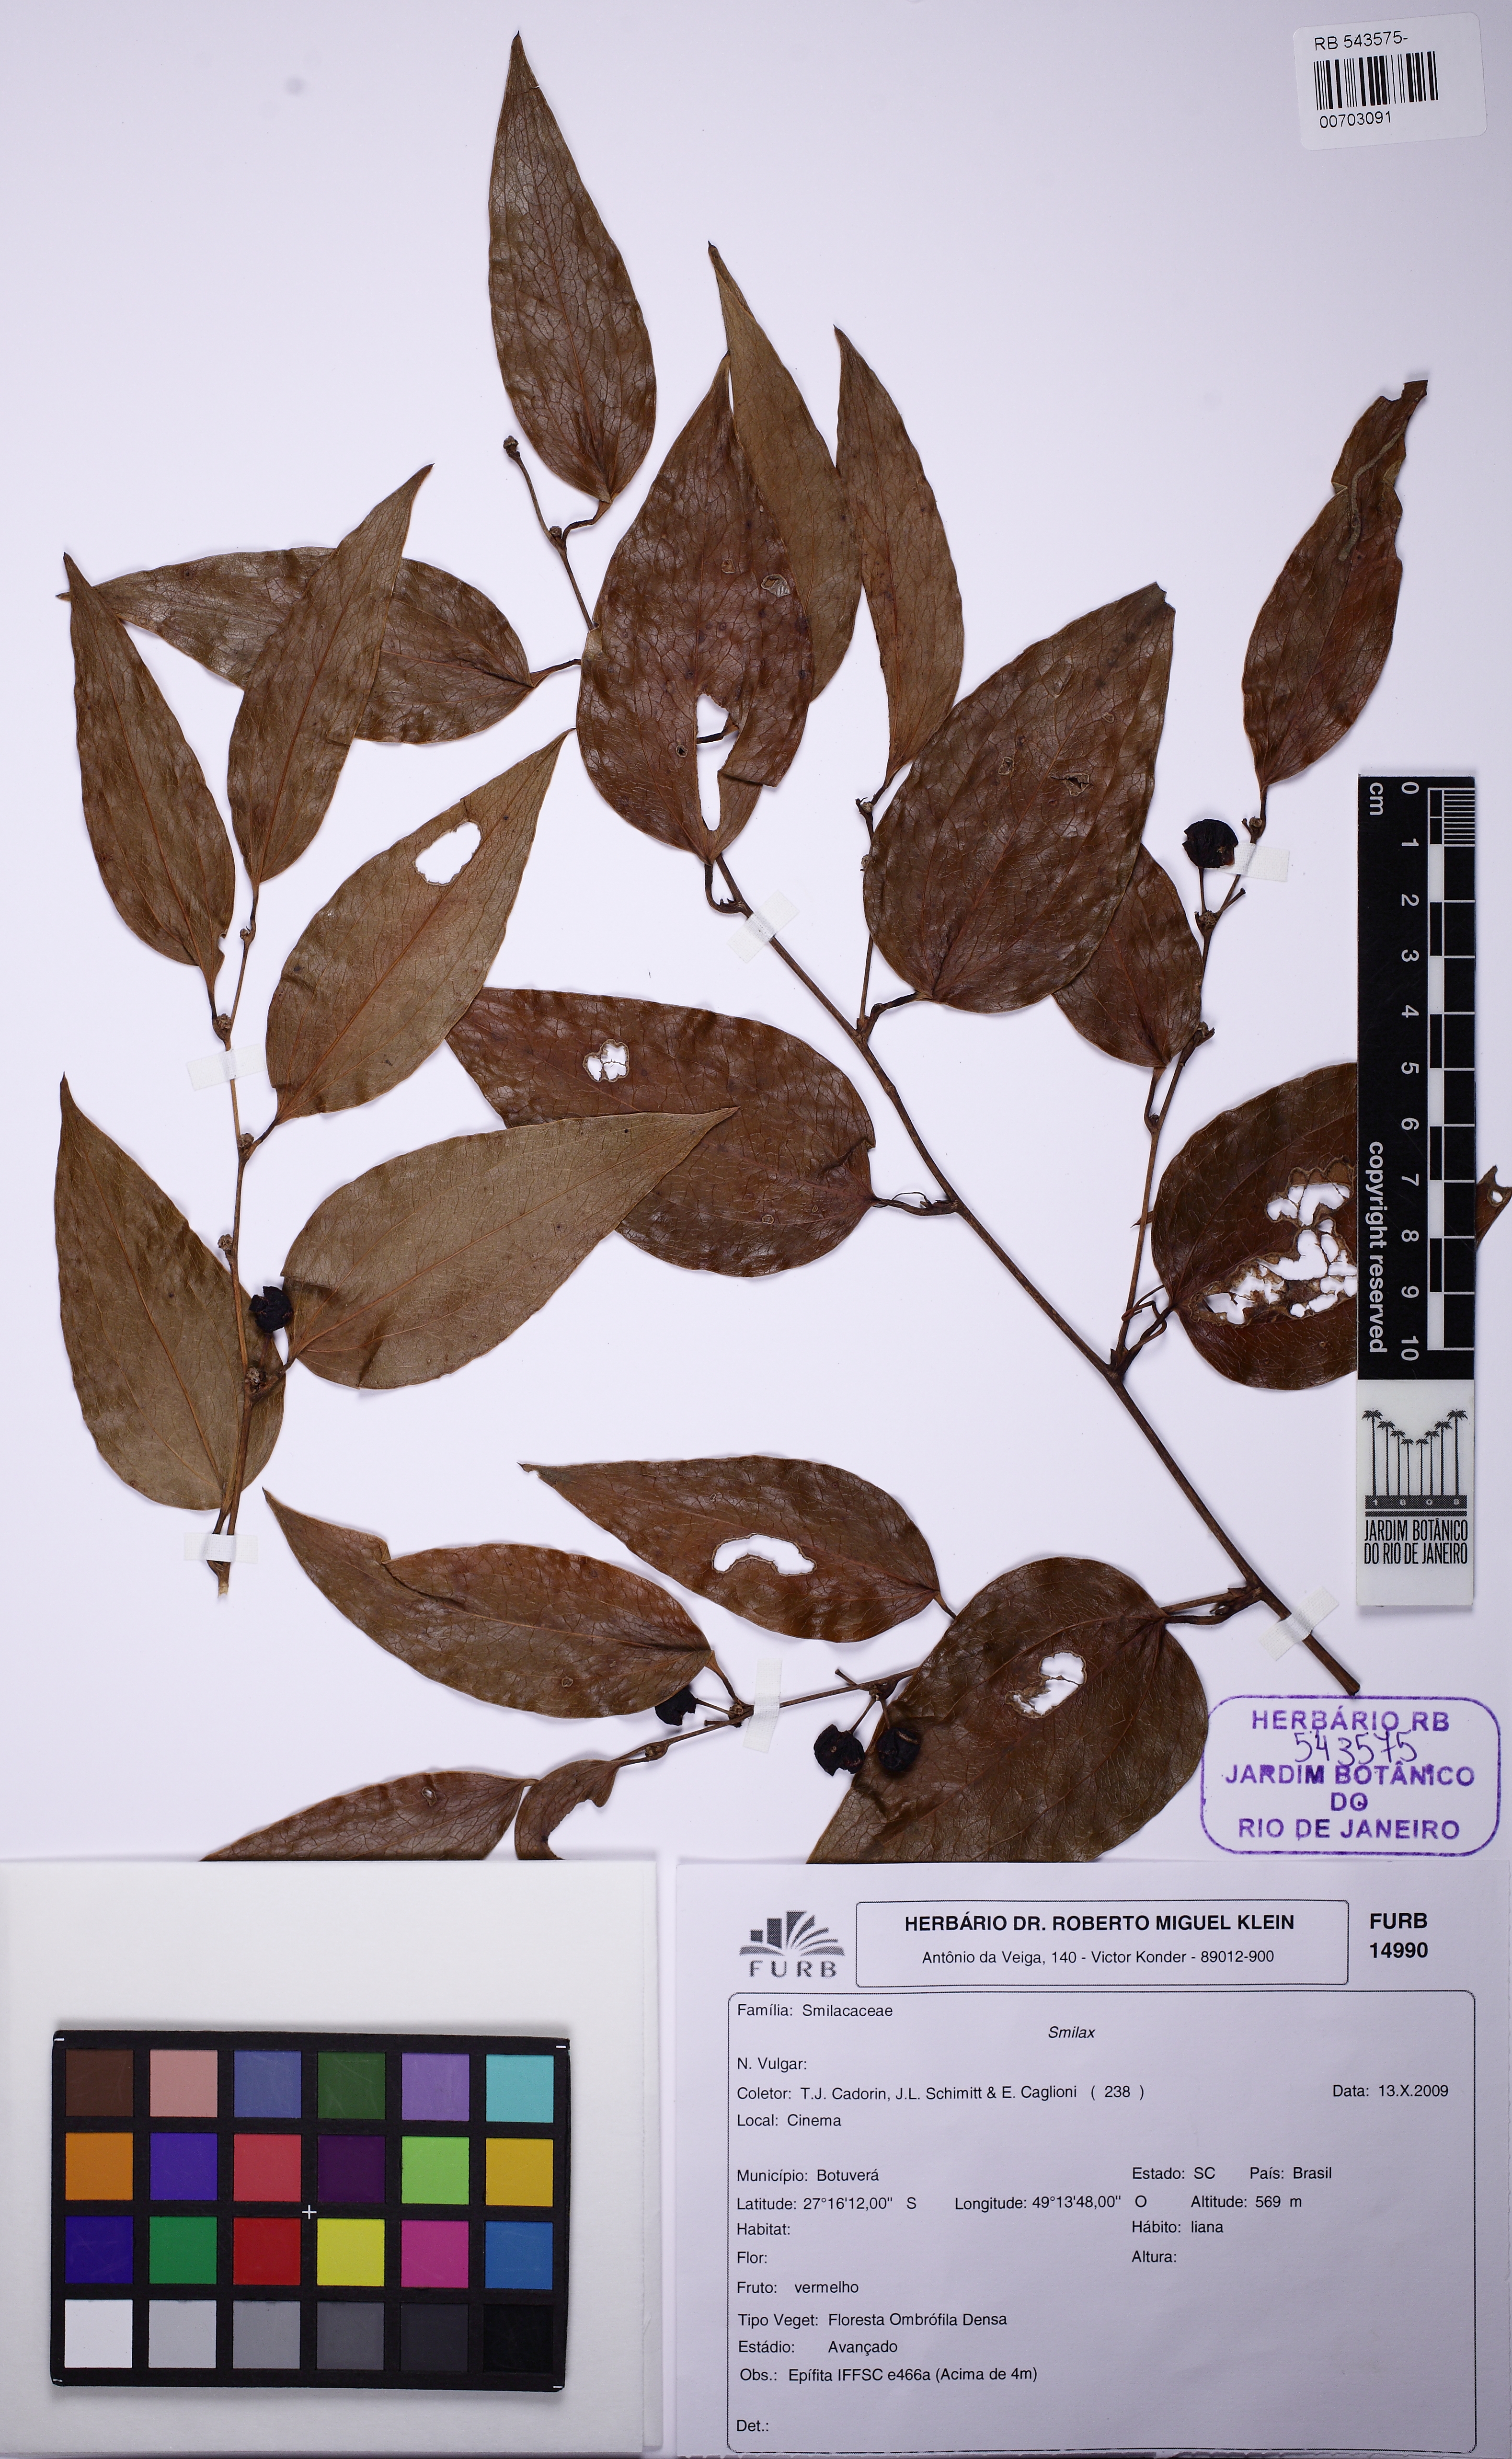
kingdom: Plantae
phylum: Tracheophyta
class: Liliopsida
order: Liliales
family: Smilacaceae
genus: Smilax
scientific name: Smilax
